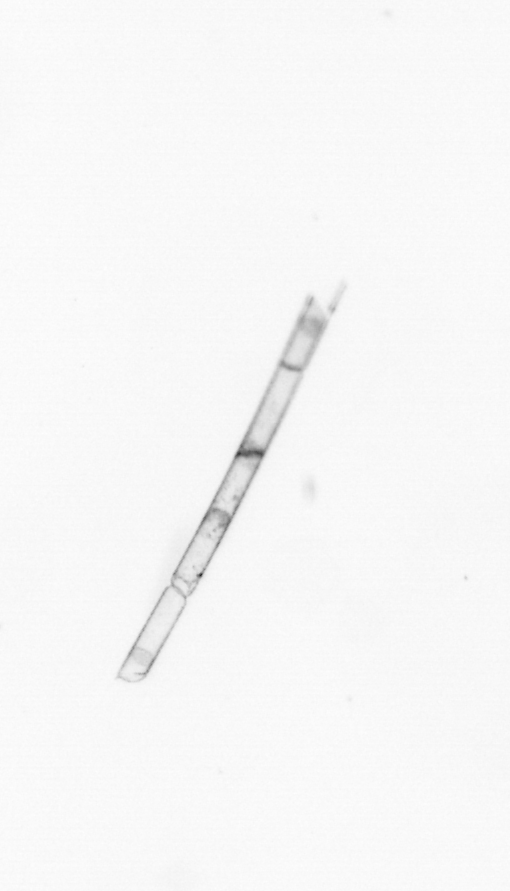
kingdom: Chromista
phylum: Ochrophyta
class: Bacillariophyceae
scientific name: Bacillariophyceae
